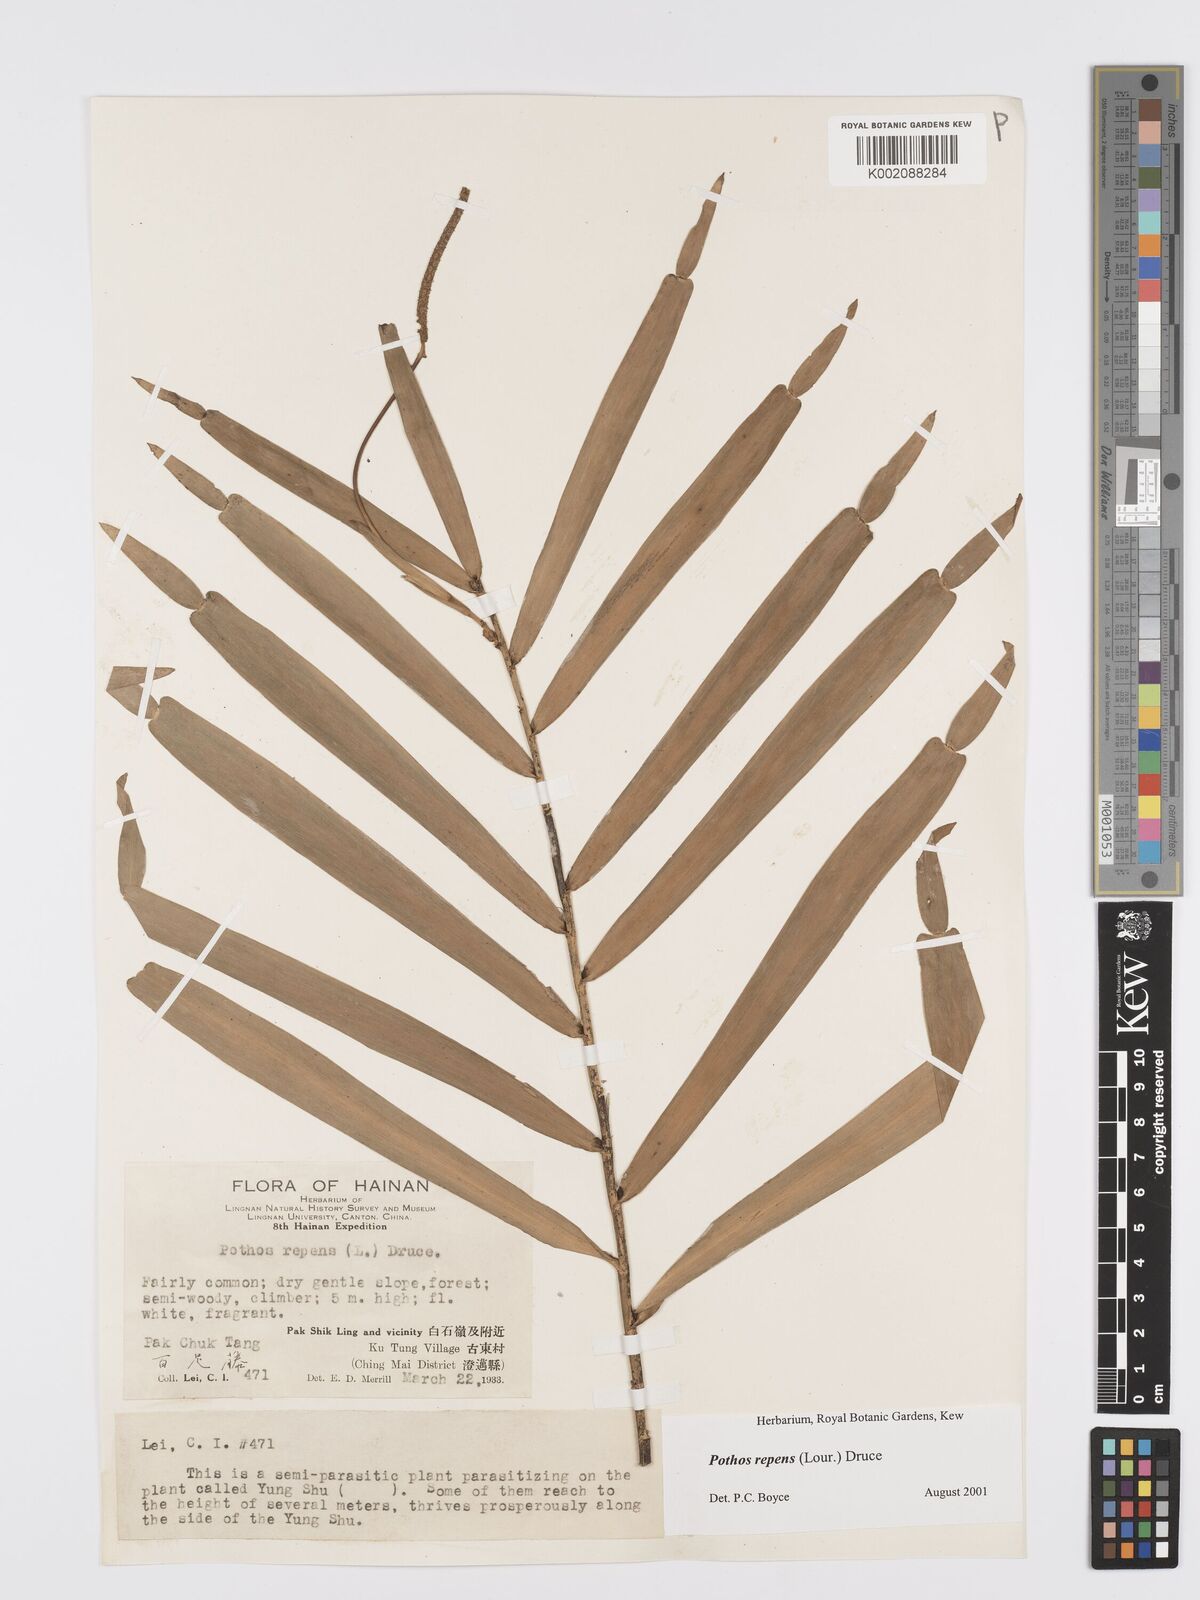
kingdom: Plantae
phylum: Tracheophyta
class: Liliopsida
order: Alismatales
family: Araceae
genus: Pothos
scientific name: Pothos repens
